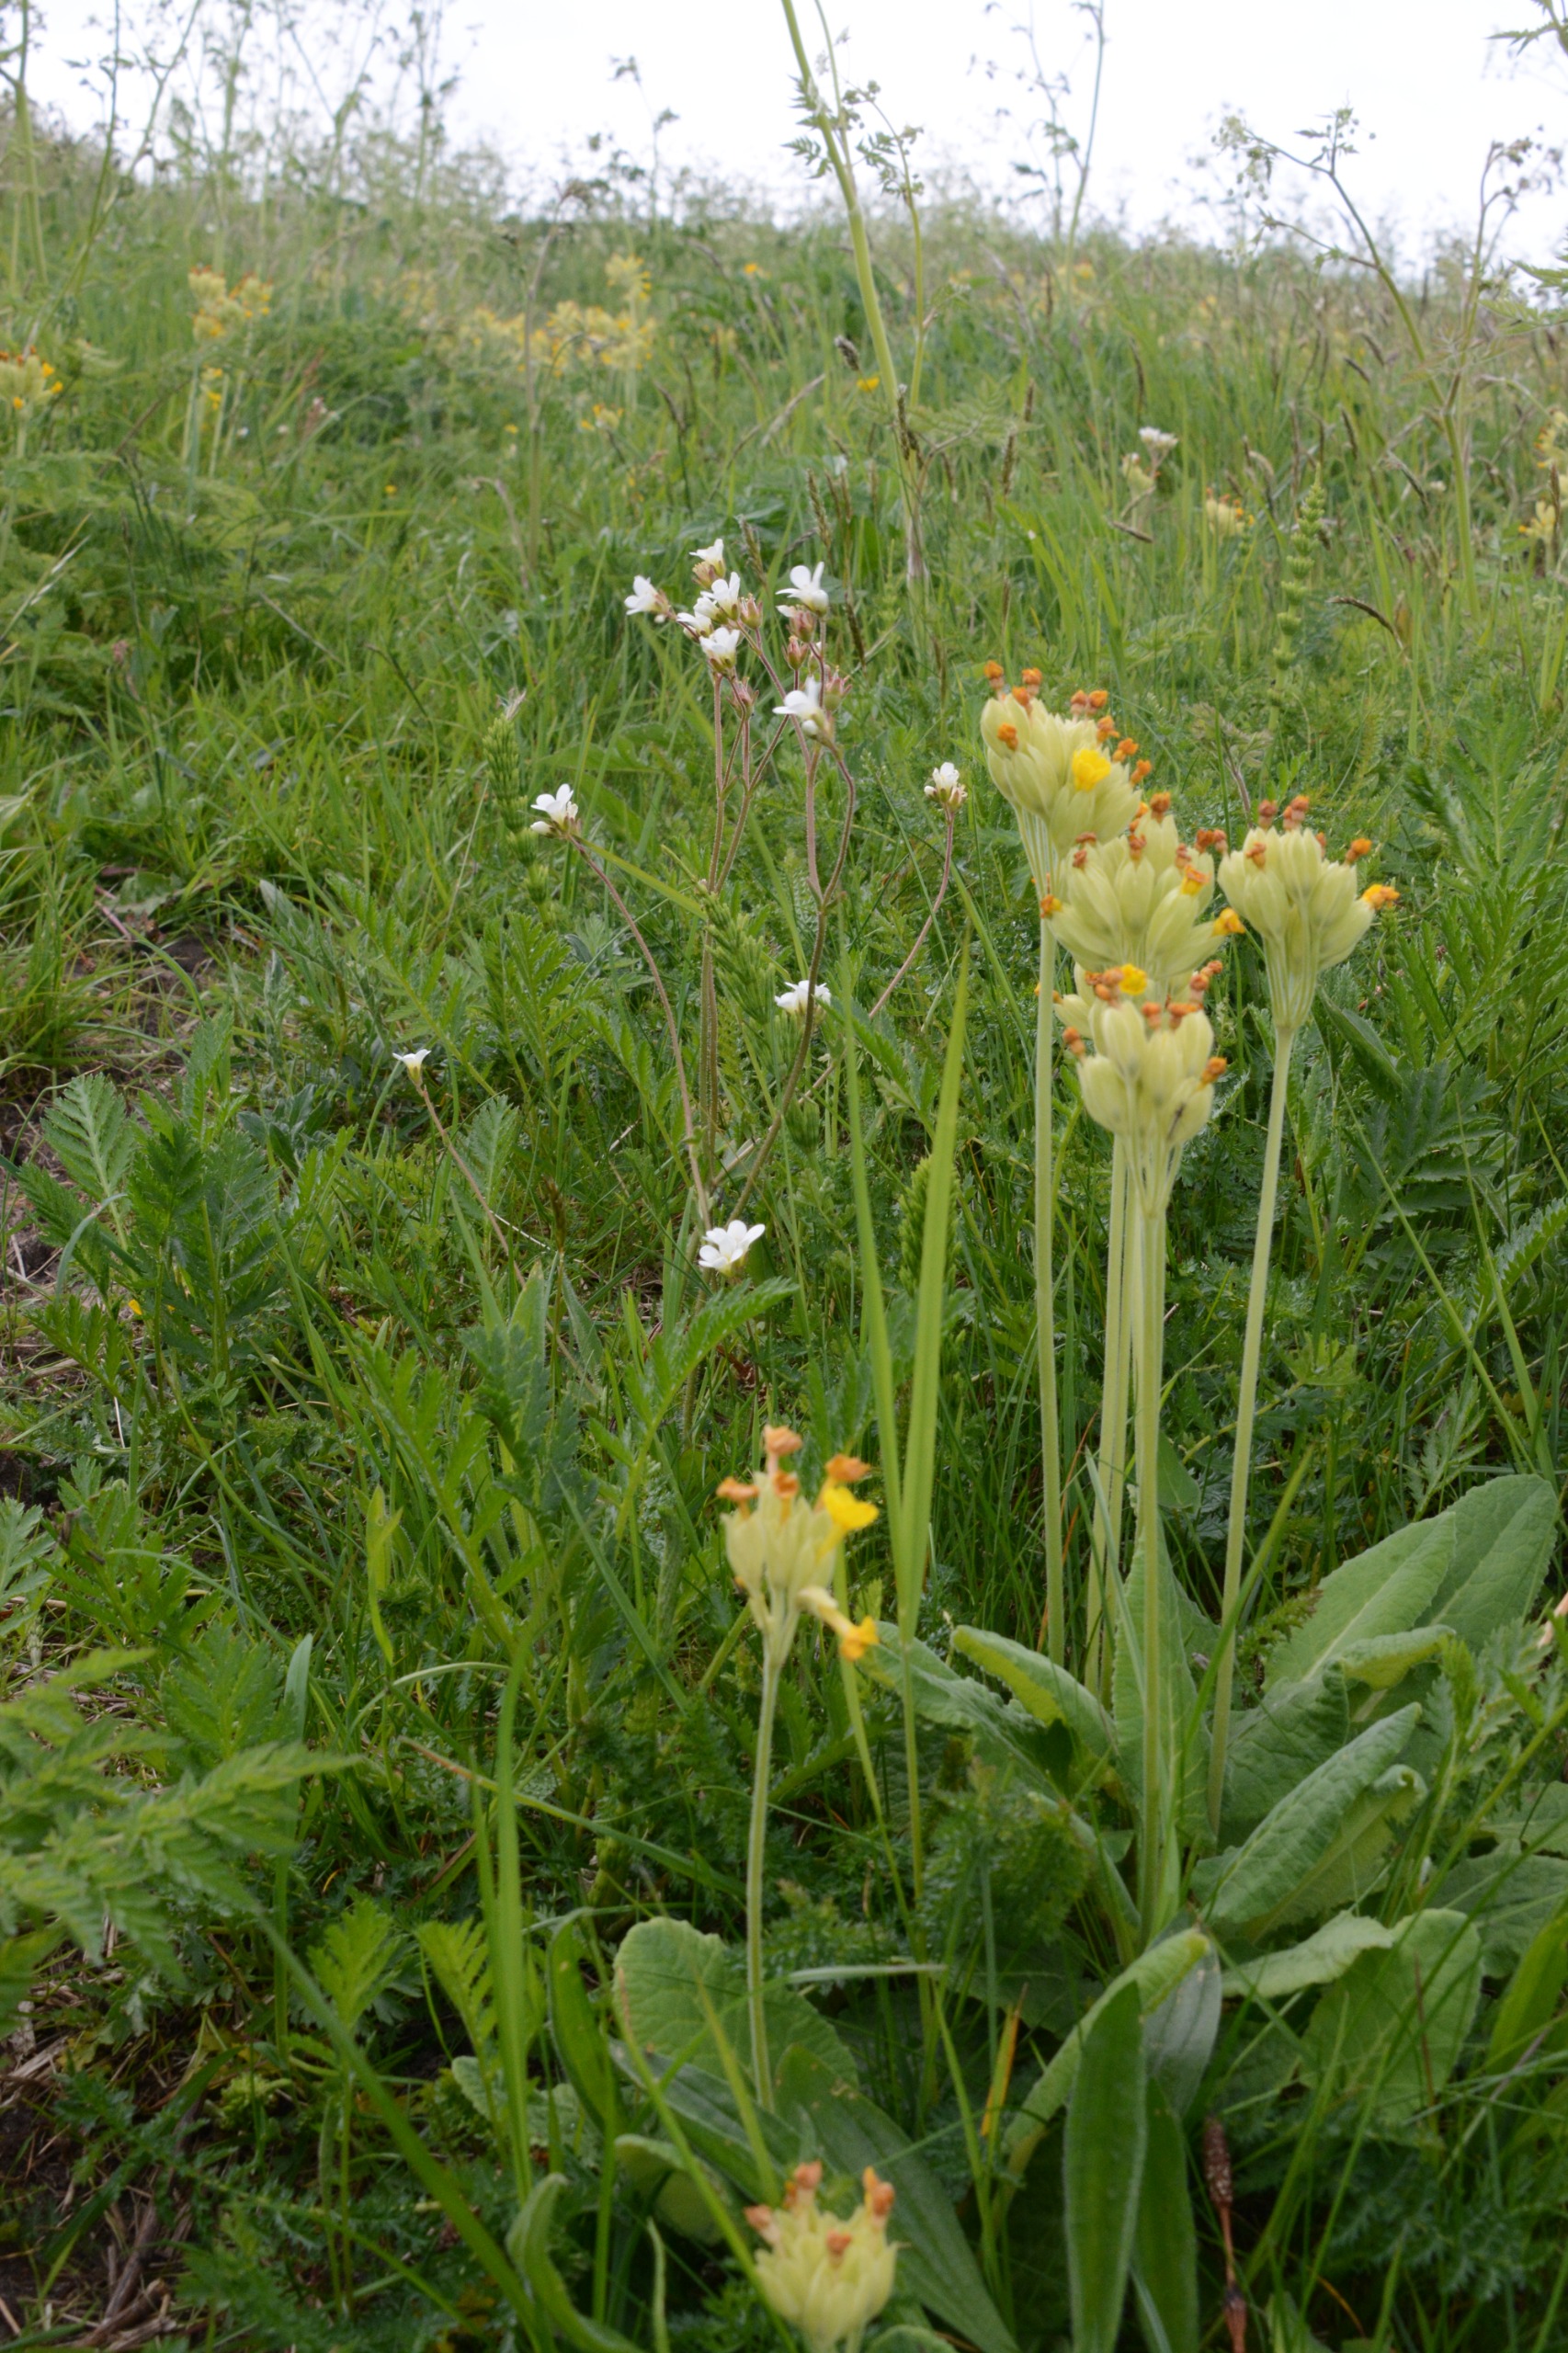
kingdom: Plantae
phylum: Tracheophyta
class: Magnoliopsida
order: Ericales
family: Primulaceae
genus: Primula
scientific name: Primula veris
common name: Hulkravet kodriver
